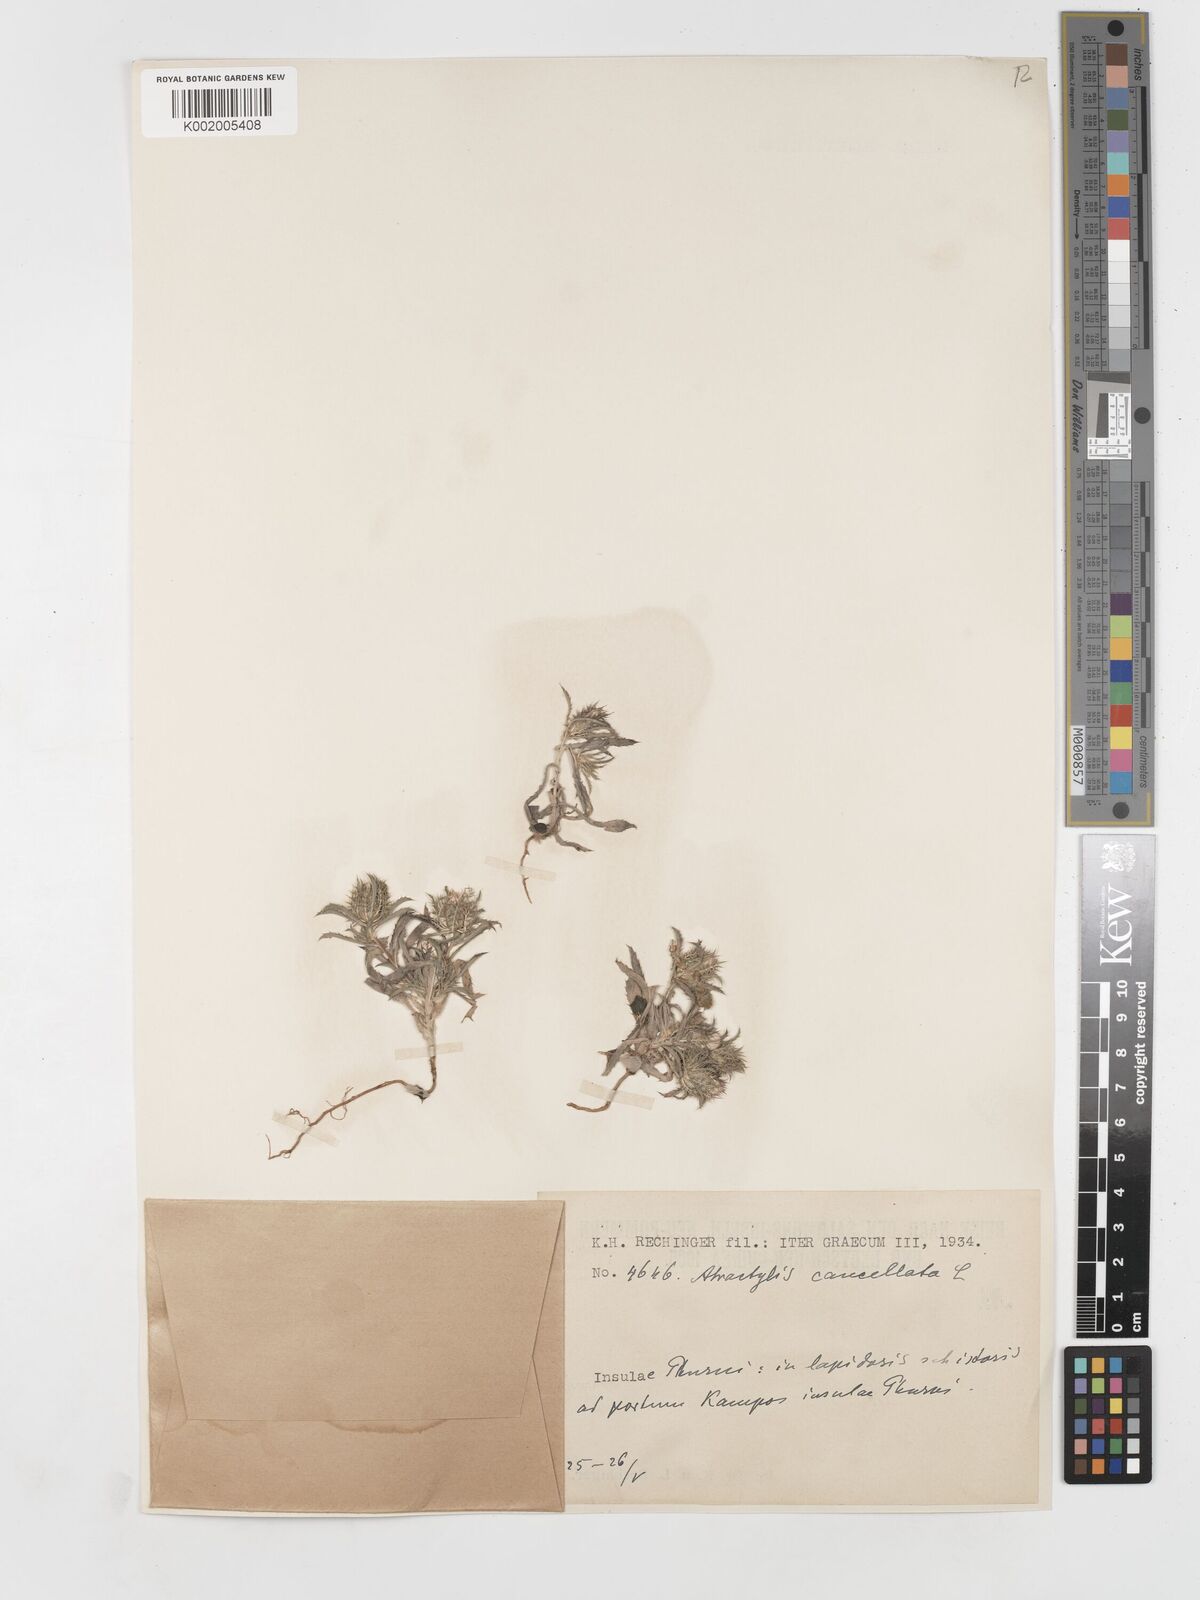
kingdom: Plantae
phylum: Tracheophyta
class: Magnoliopsida
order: Asterales
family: Asteraceae
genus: Atractylis
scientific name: Atractylis cancellata
